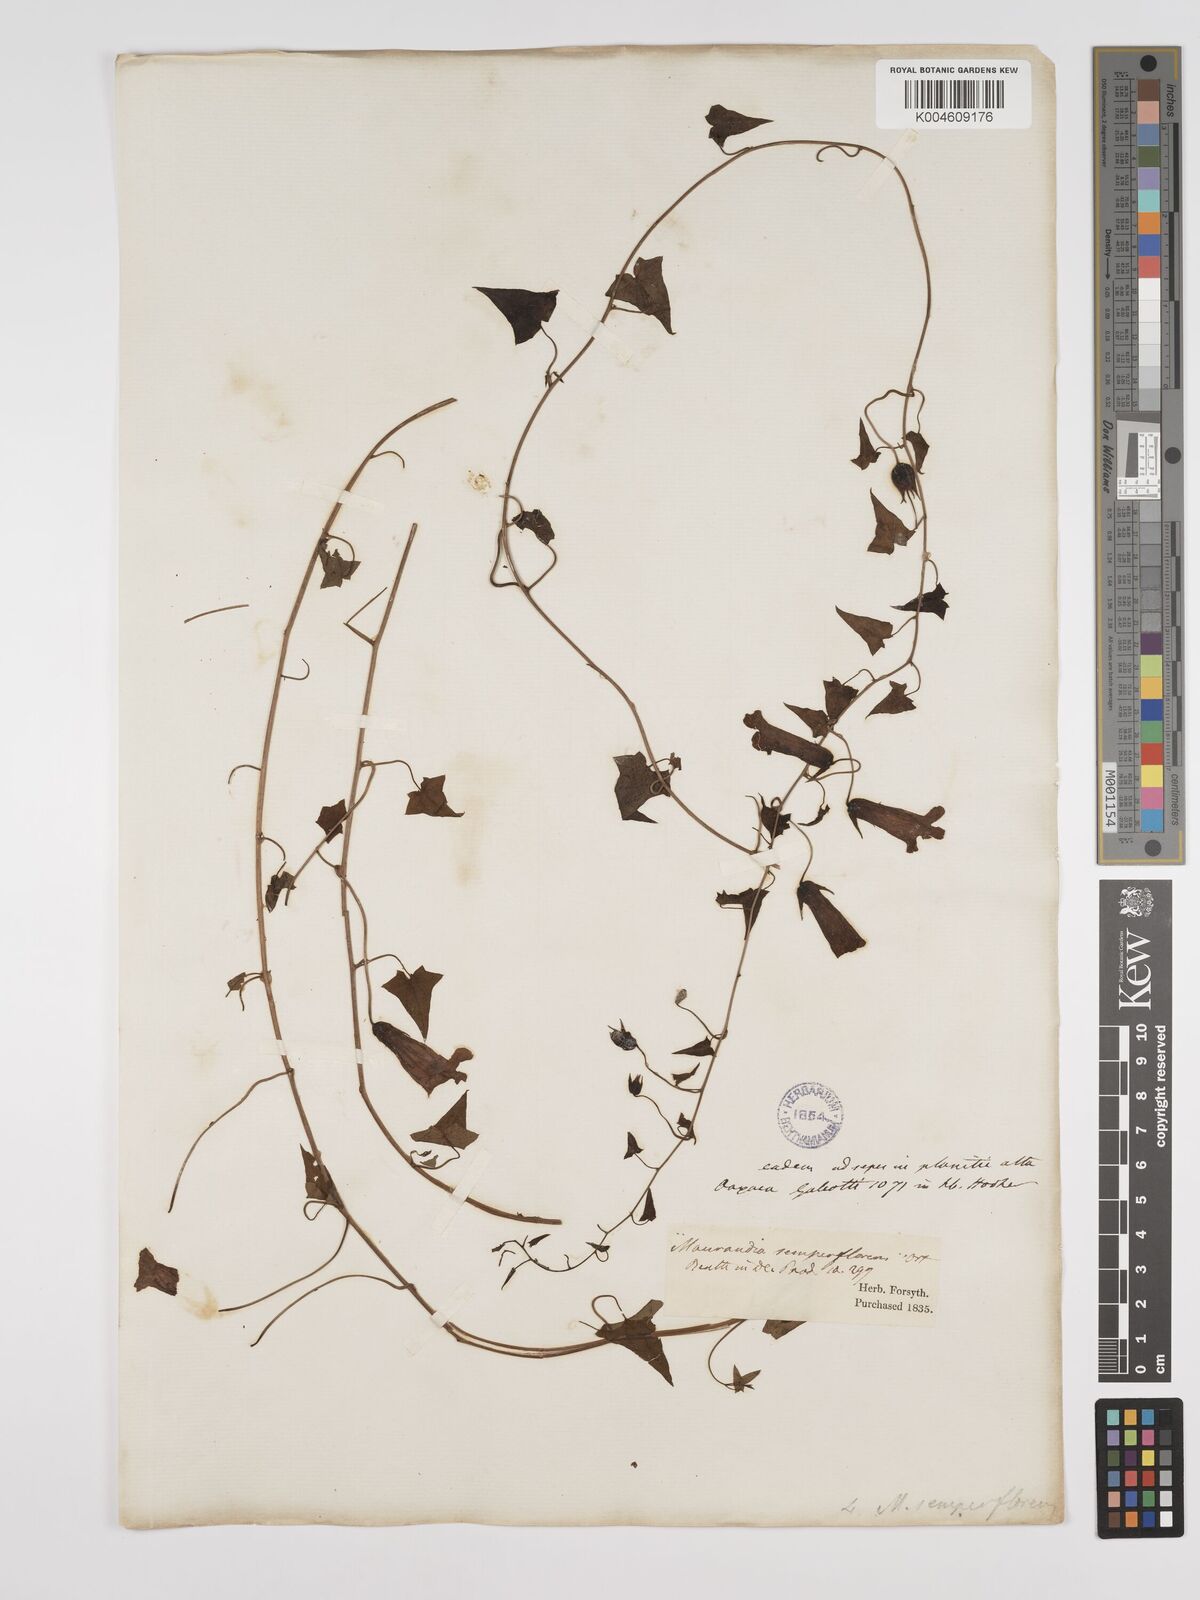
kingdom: Plantae
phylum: Tracheophyta
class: Magnoliopsida
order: Lamiales
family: Plantaginaceae
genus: Maurandya
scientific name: Maurandya scandens
